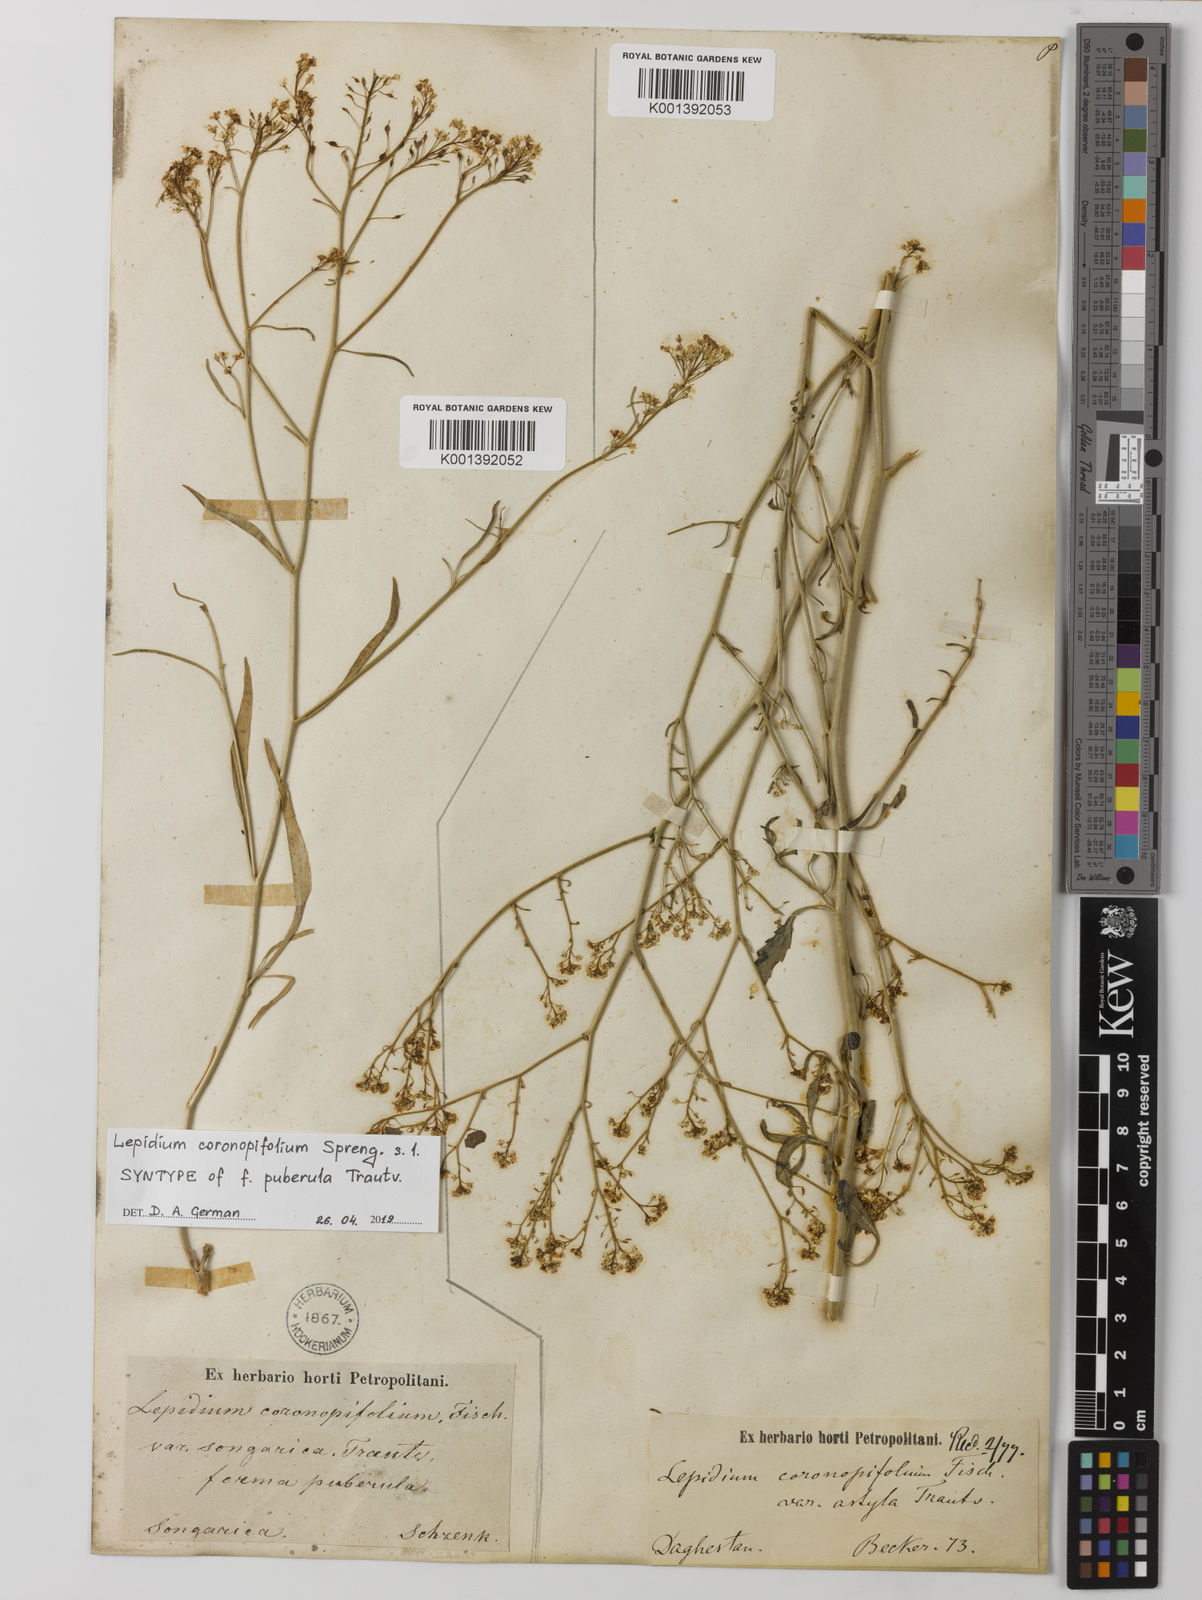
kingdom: Plantae
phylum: Tracheophyta
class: Magnoliopsida
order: Brassicales
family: Brassicaceae
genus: Lepidium
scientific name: Lepidium coronopifolium
